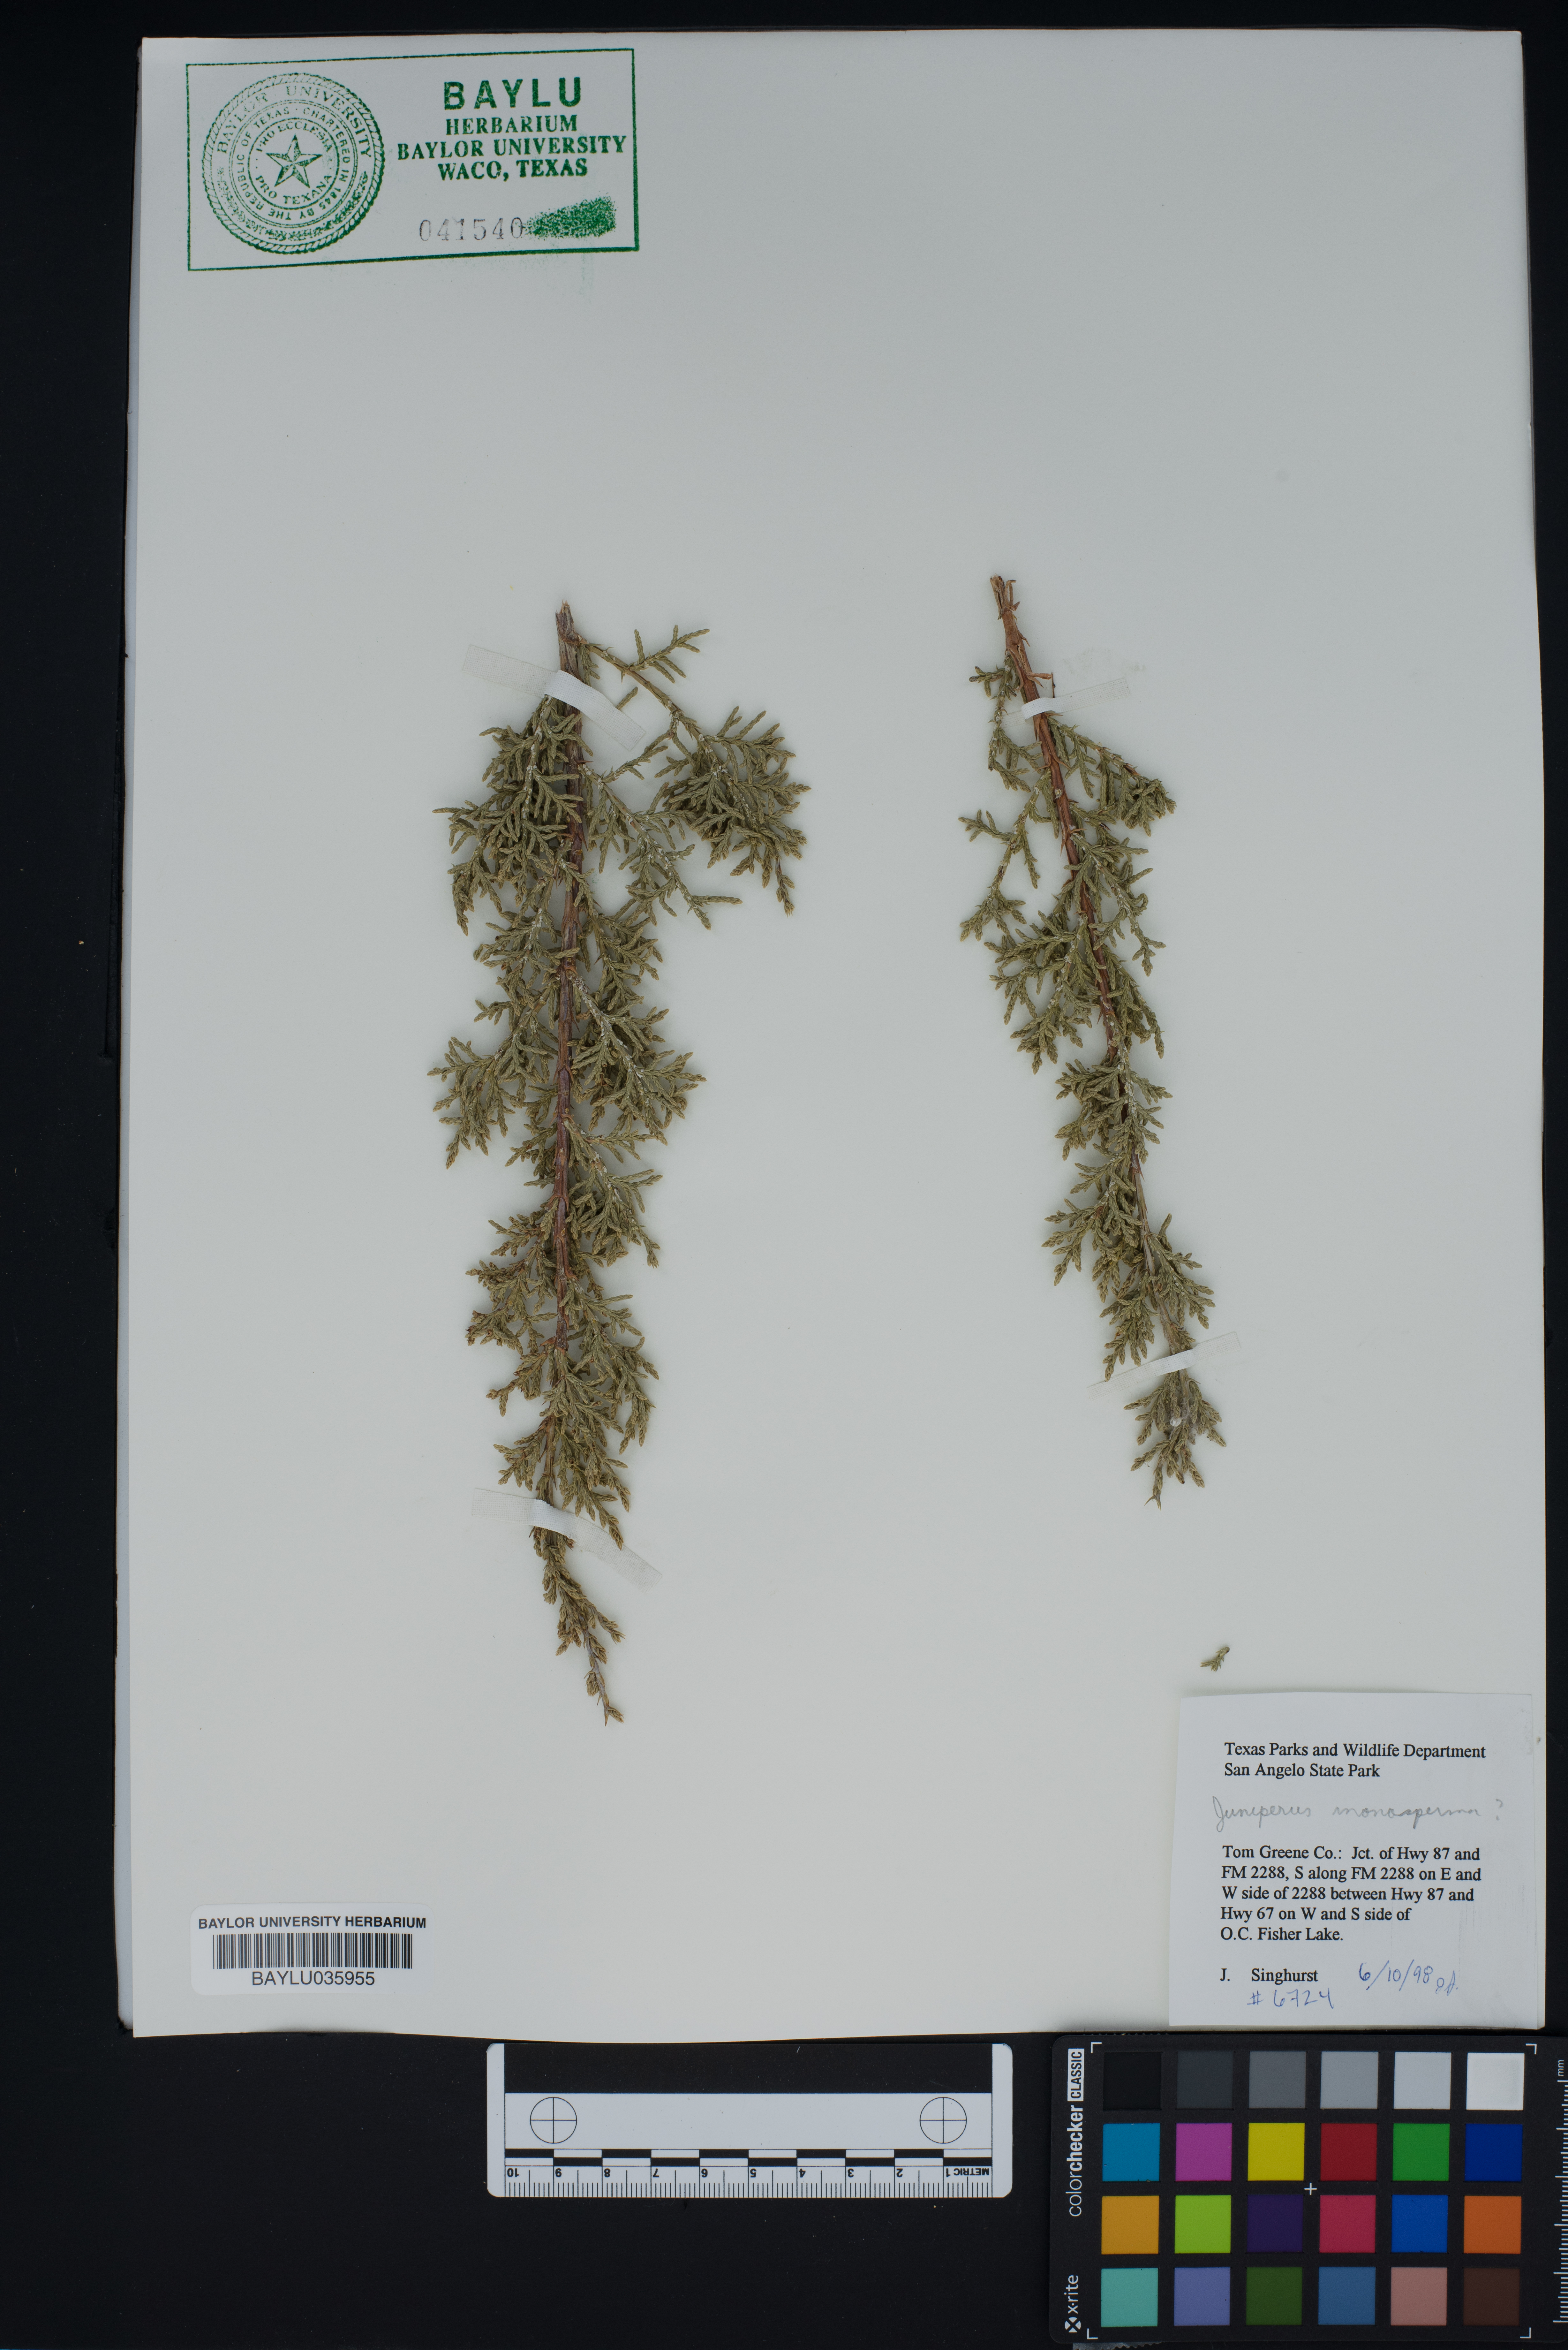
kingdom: Plantae
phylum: Tracheophyta
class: Pinopsida
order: Pinales
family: Cupressaceae
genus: Juniperus
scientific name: Juniperus monosperma
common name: One-seed juniper
